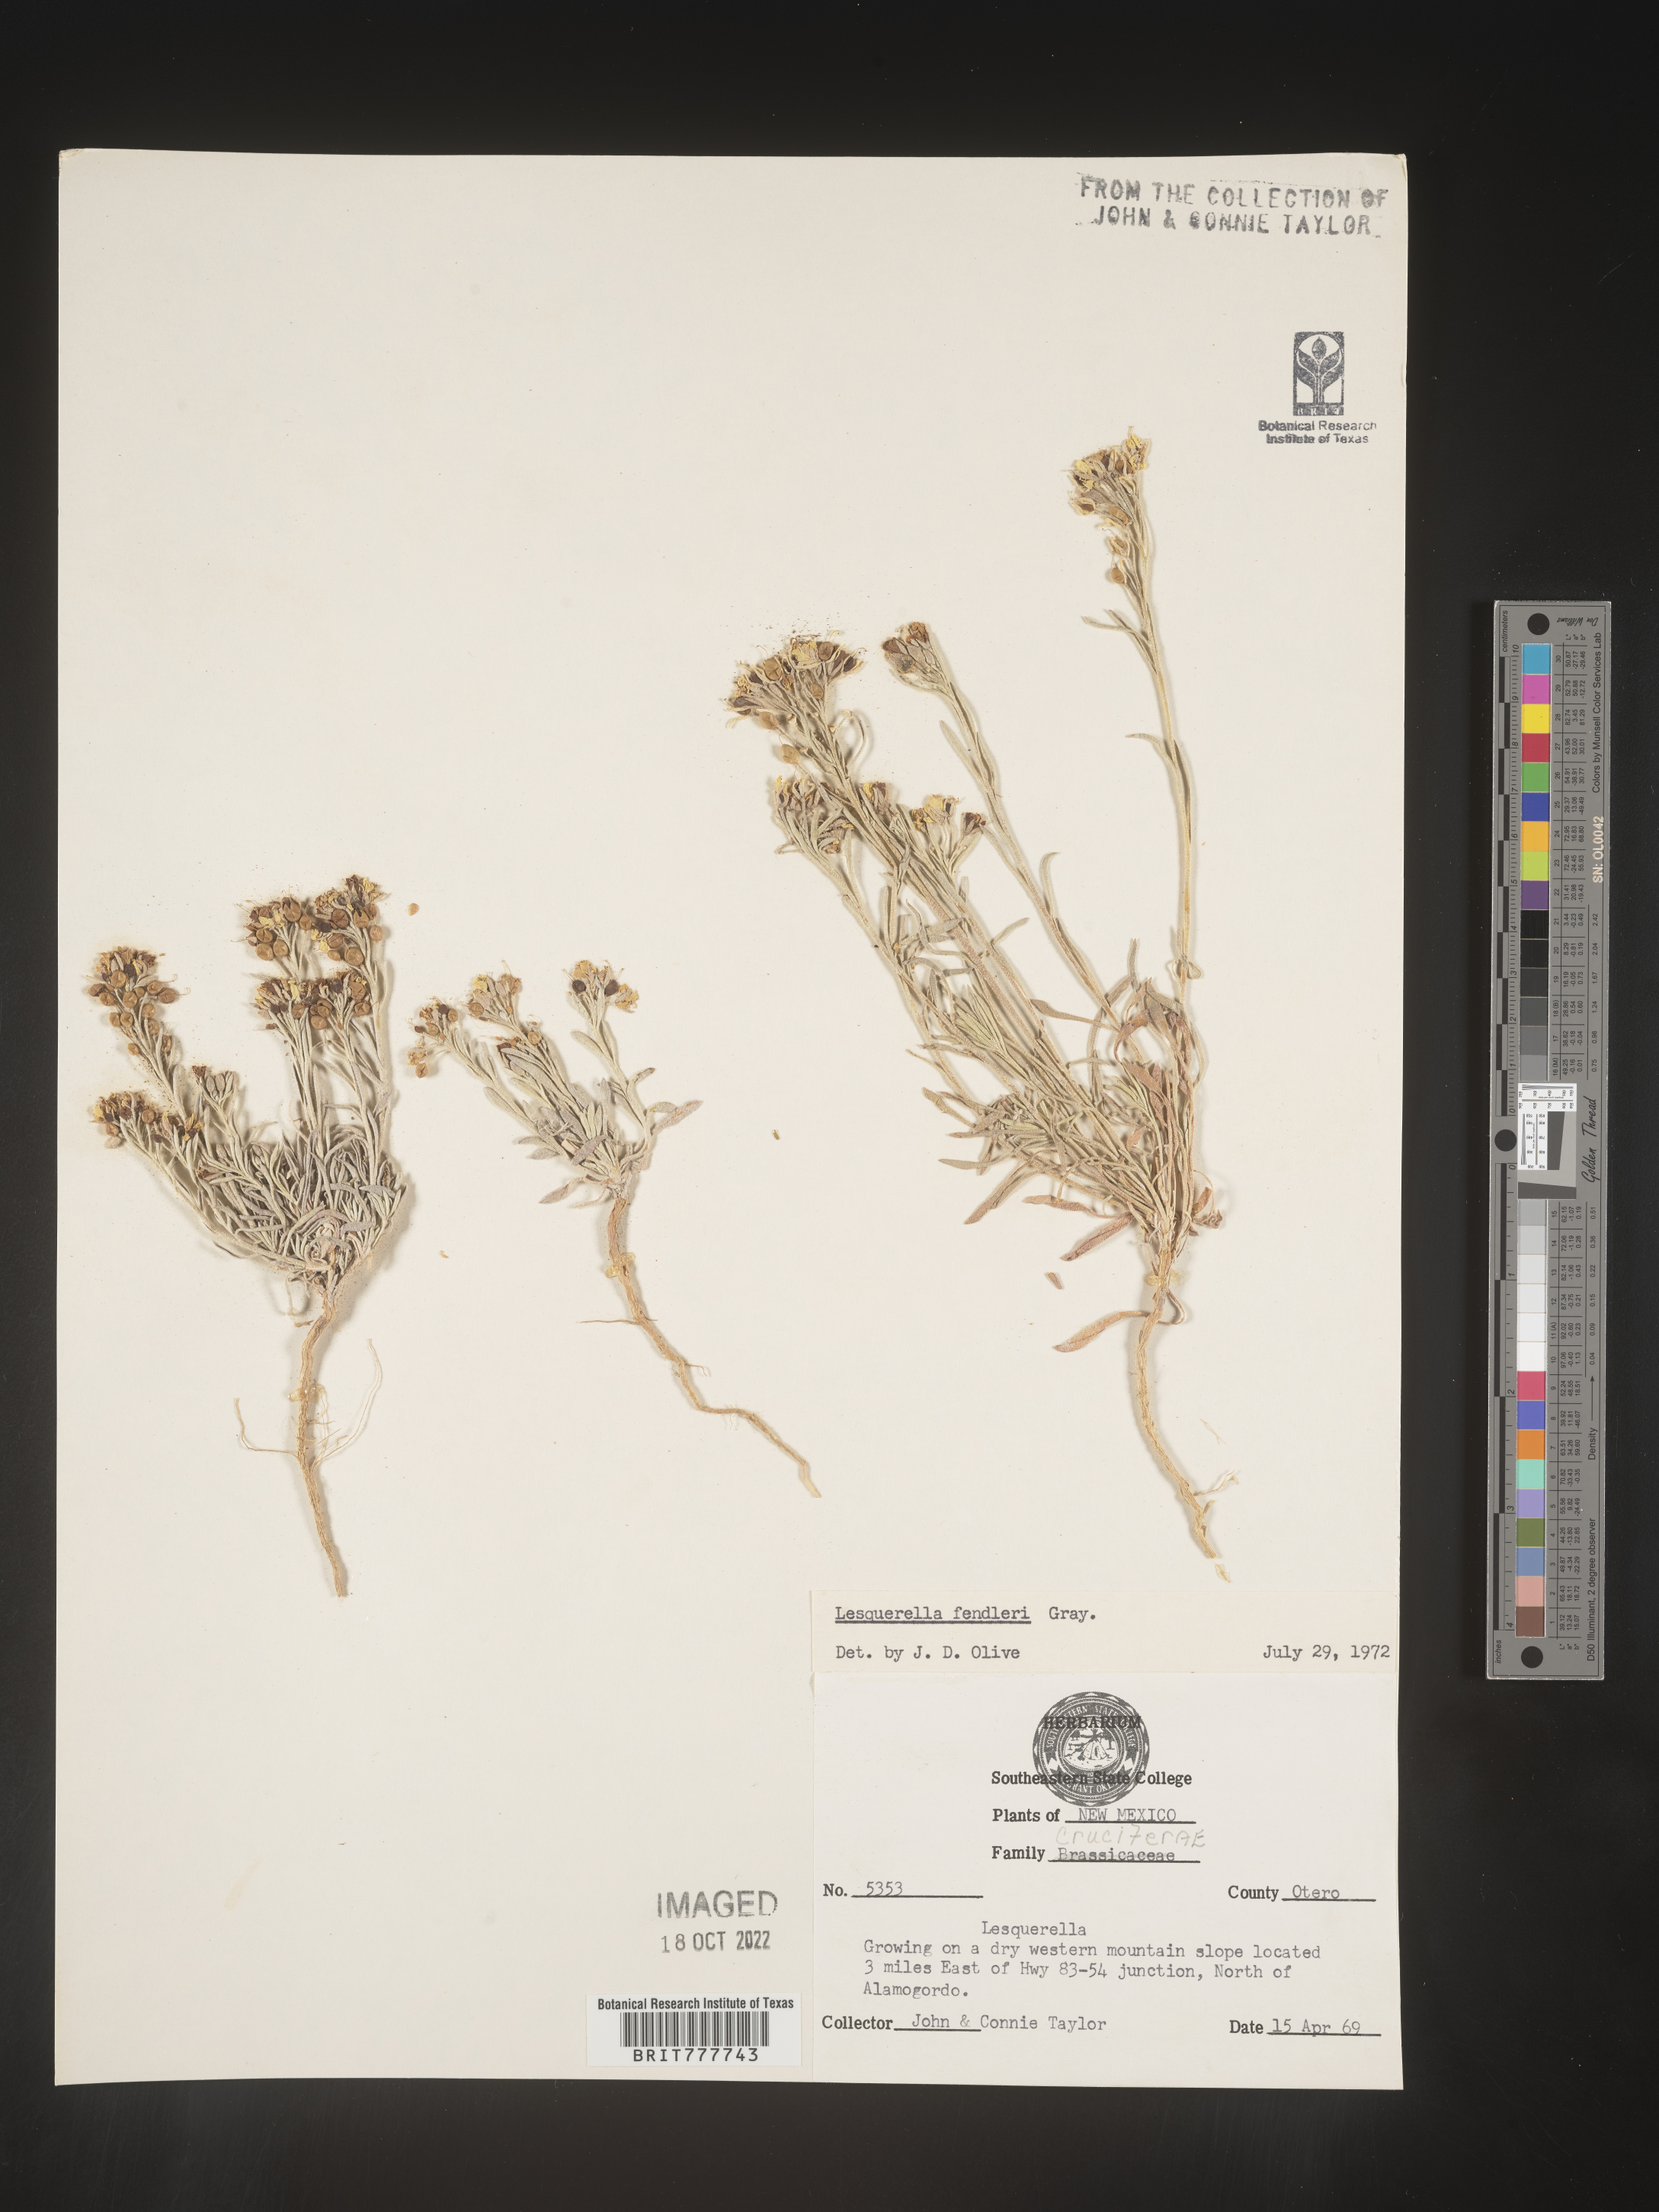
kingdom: Plantae
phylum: Tracheophyta
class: Magnoliopsida
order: Brassicales
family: Brassicaceae
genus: Physaria
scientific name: Physaria fendleri
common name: Fendler's bladderpod
